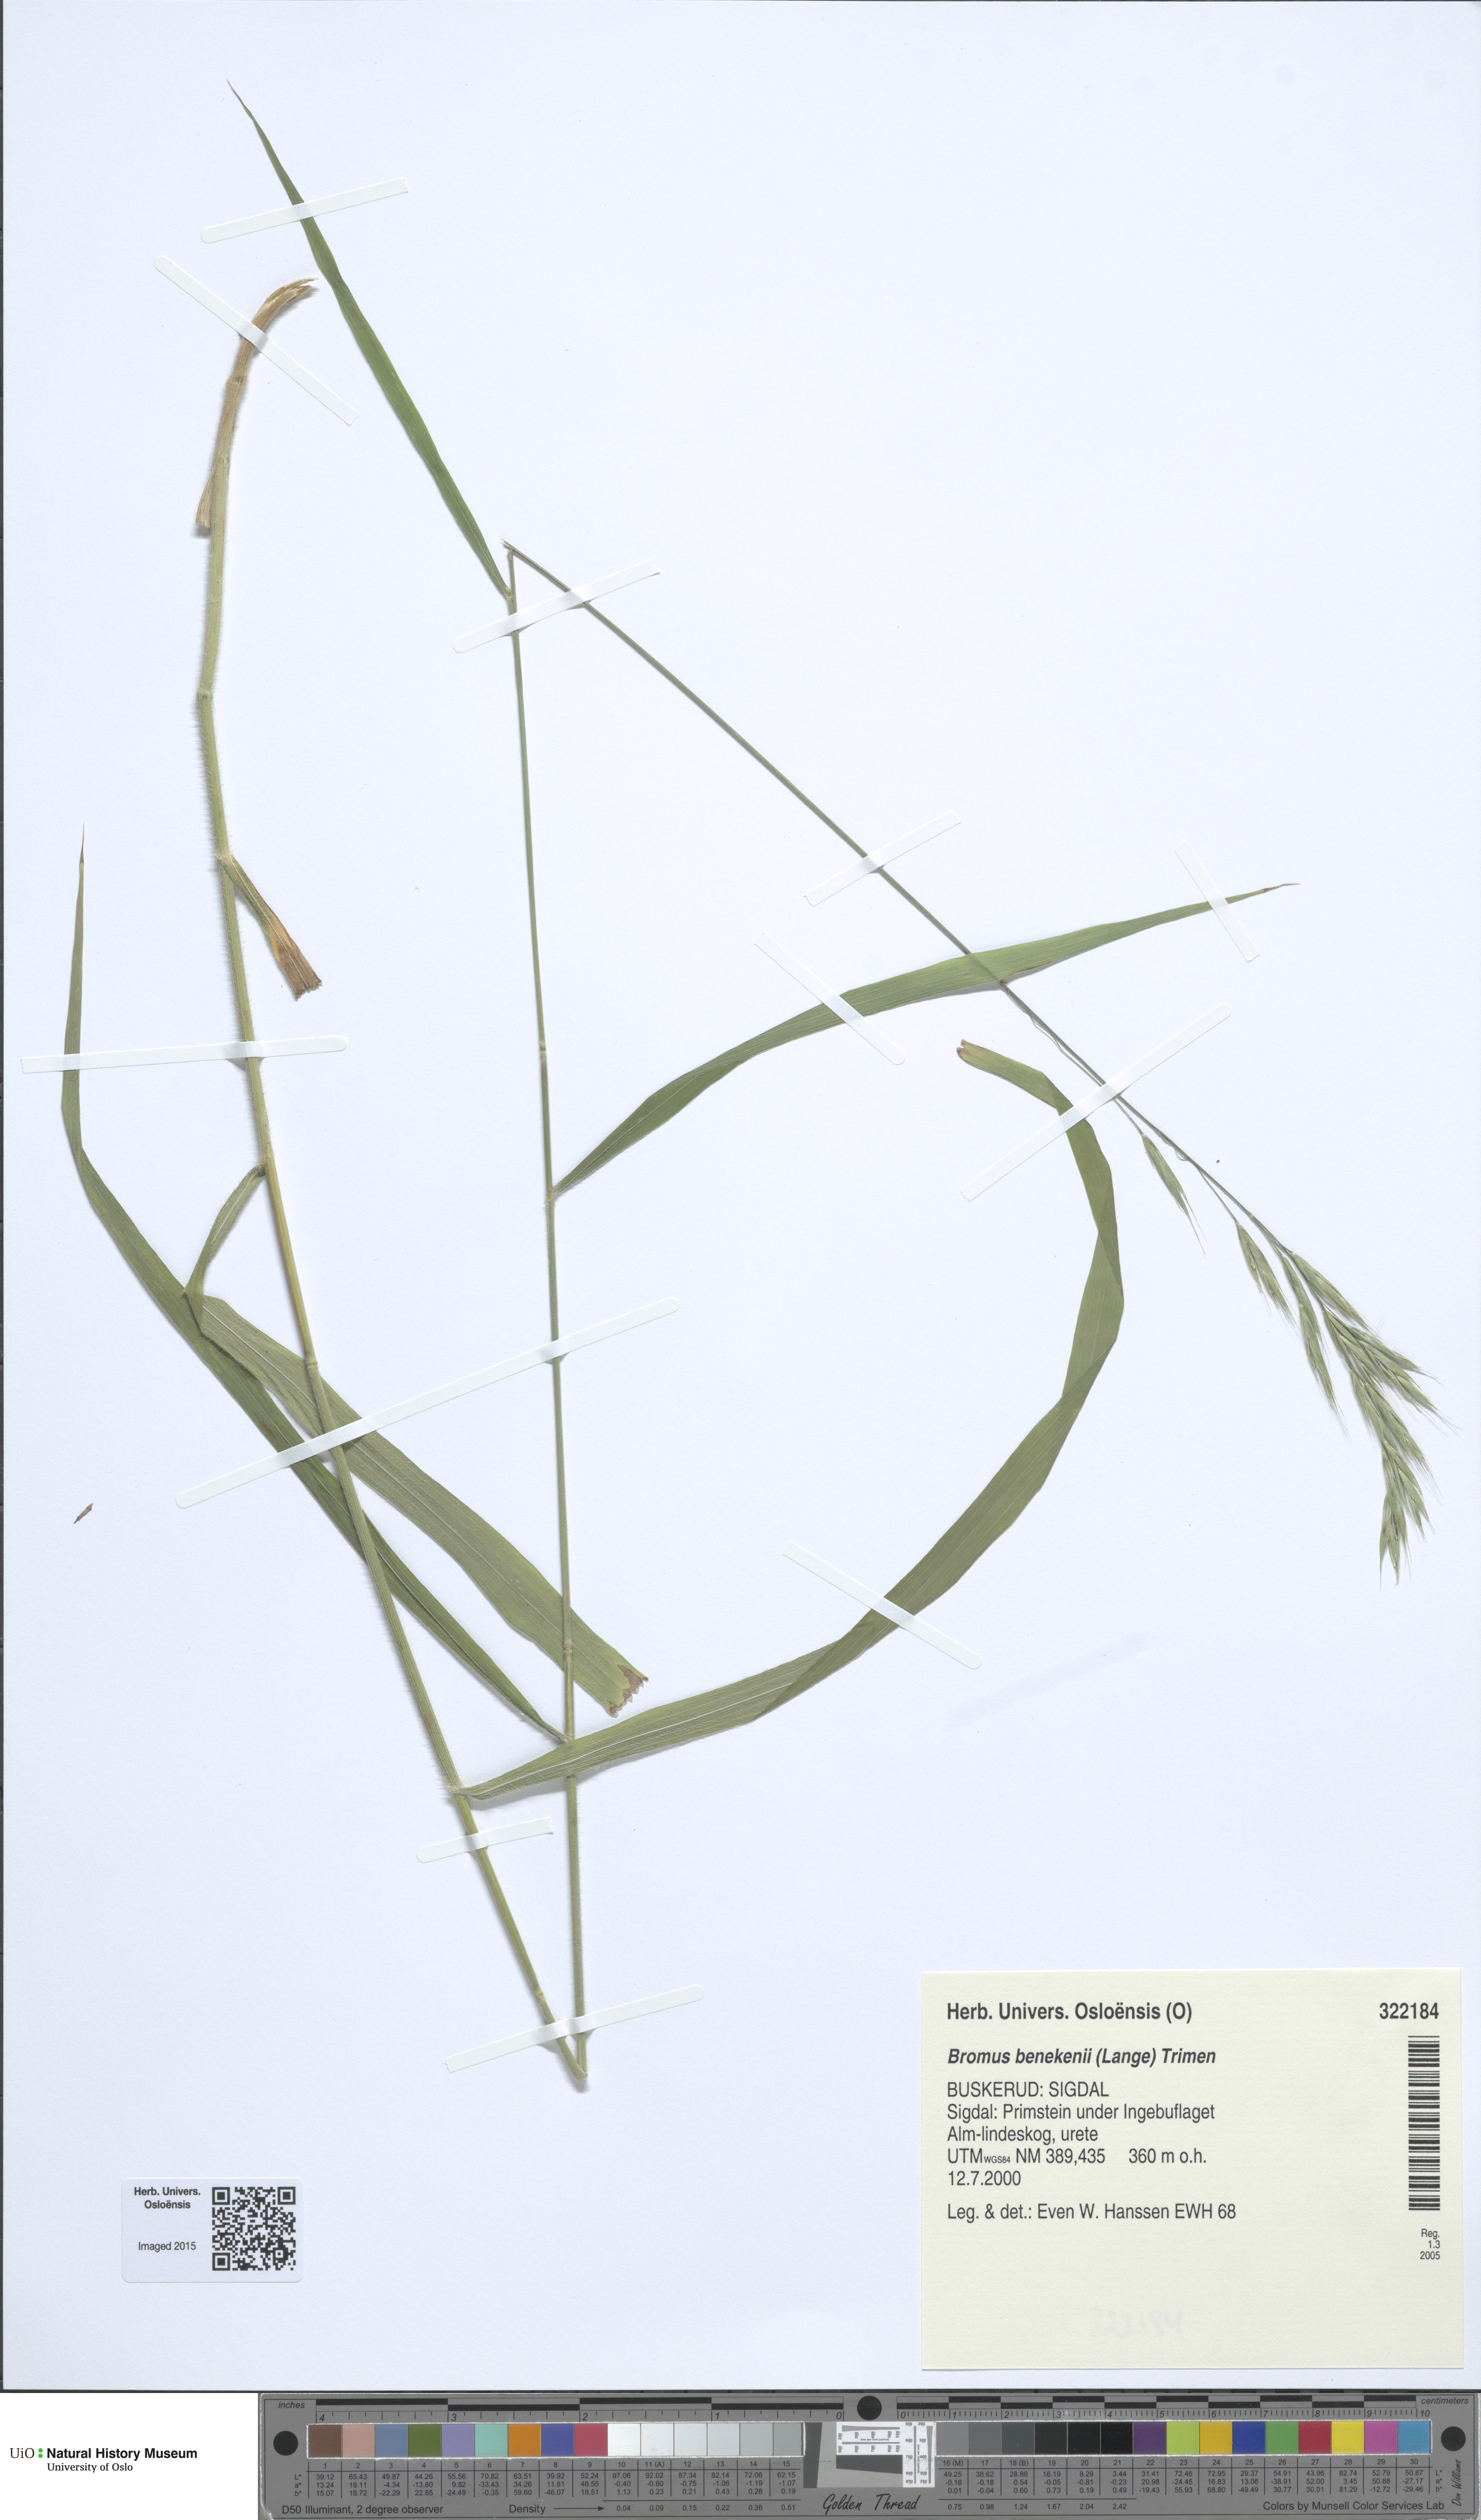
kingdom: Plantae
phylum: Tracheophyta
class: Liliopsida
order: Poales
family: Poaceae
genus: Bromus
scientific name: Bromus benekenii
